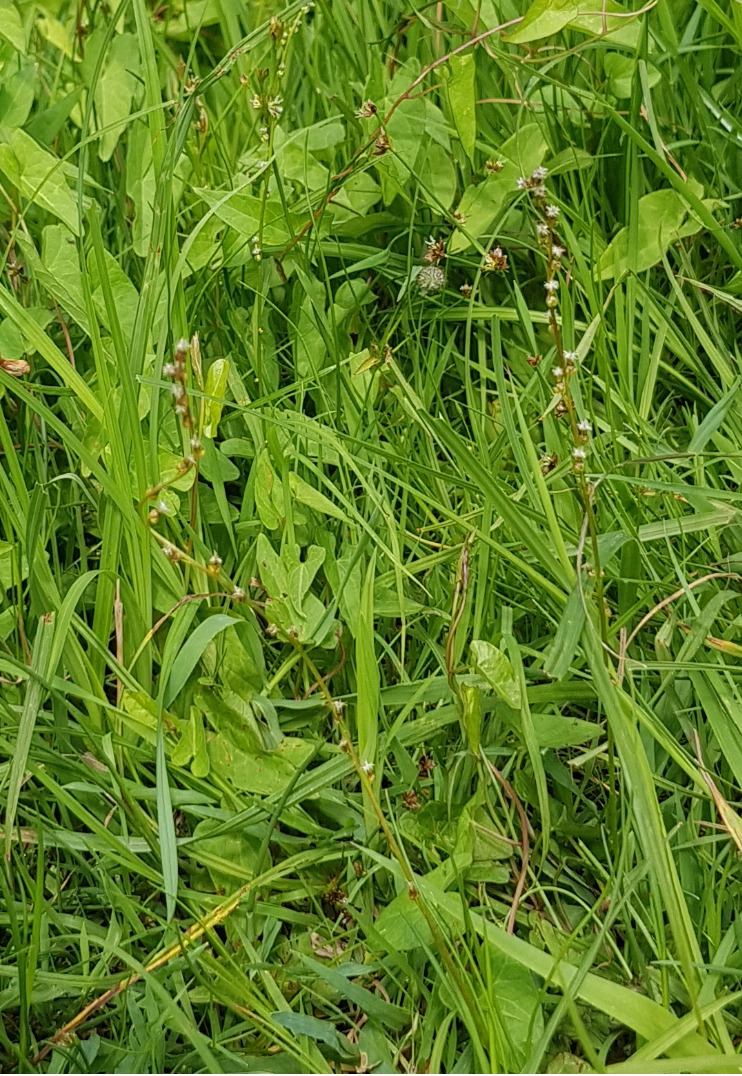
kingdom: Plantae
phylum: Tracheophyta
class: Liliopsida
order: Alismatales
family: Juncaginaceae
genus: Triglochin
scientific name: Triglochin palustris
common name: Kær-trehage
